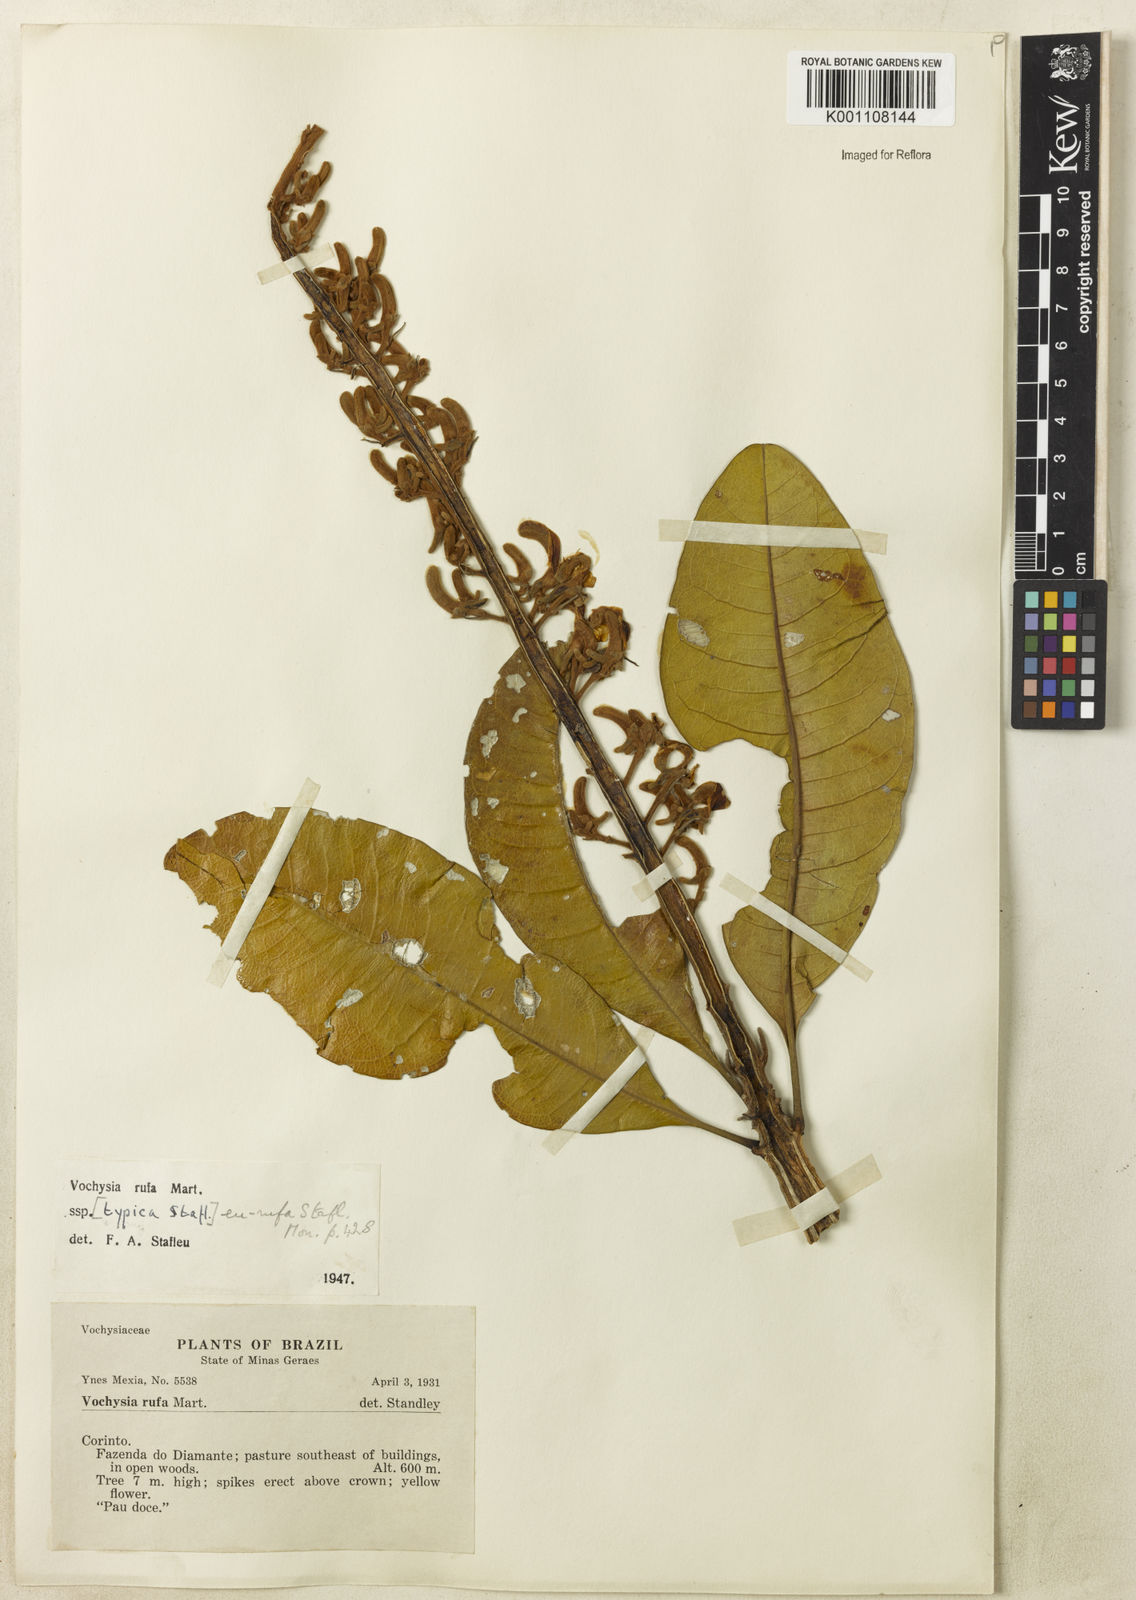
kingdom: Plantae
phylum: Tracheophyta
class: Magnoliopsida
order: Myrtales
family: Vochysiaceae
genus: Vochysia
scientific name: Vochysia rufa
